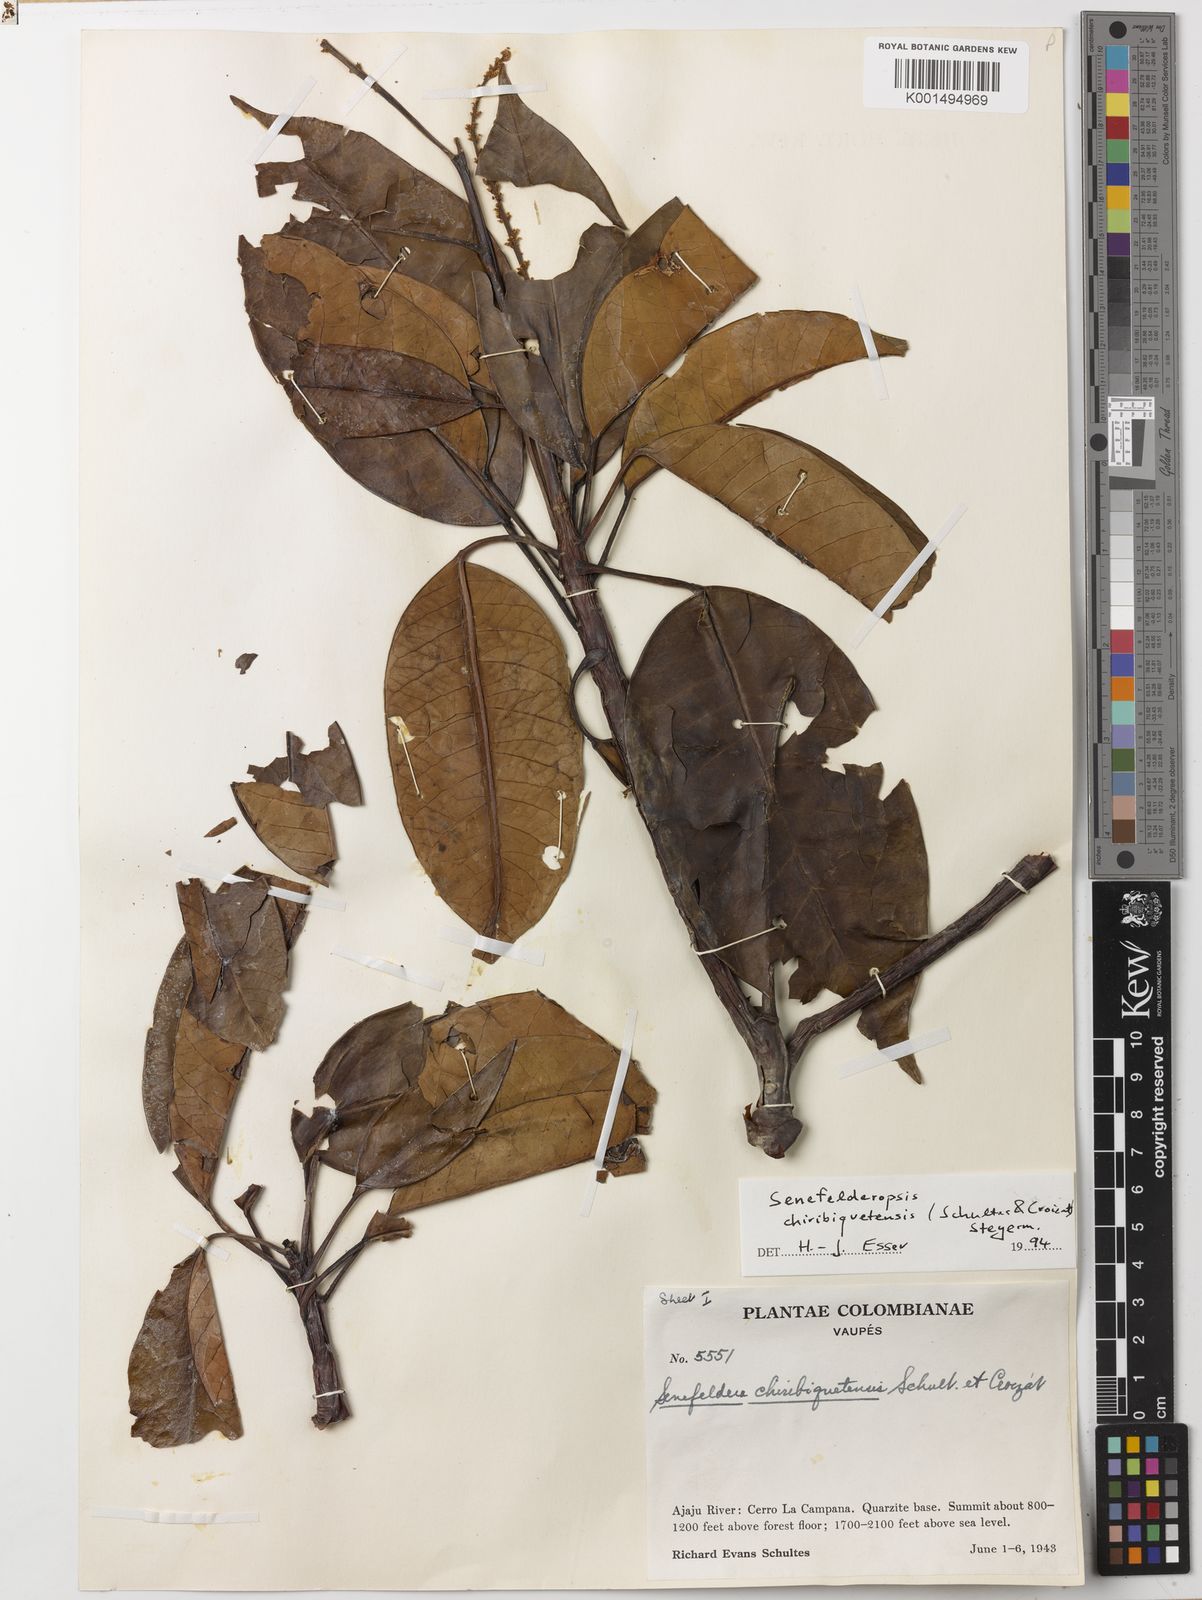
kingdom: Plantae
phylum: Tracheophyta
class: Magnoliopsida
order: Malpighiales
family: Euphorbiaceae
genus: Senefelderopsis
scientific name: Senefelderopsis chiribiquetensis
